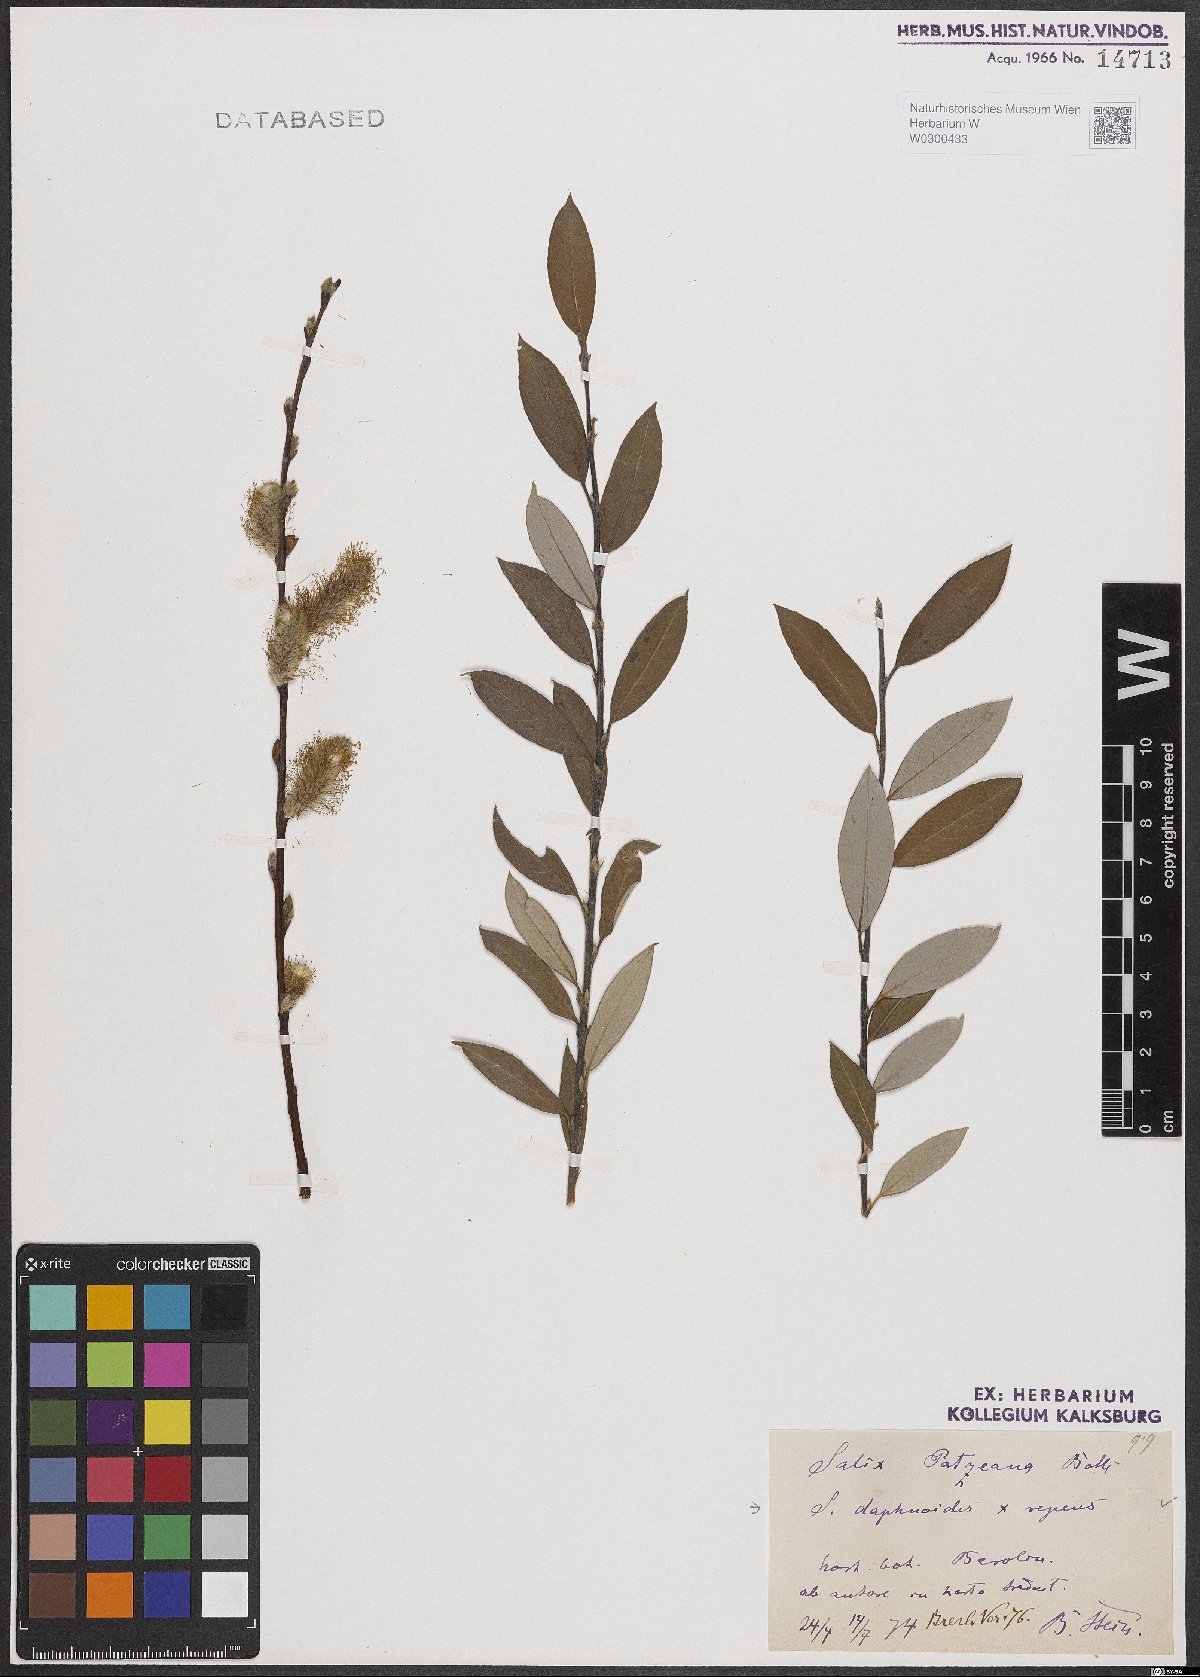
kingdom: Plantae
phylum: Tracheophyta
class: Magnoliopsida
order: Malpighiales
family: Salicaceae
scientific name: Salicaceae
